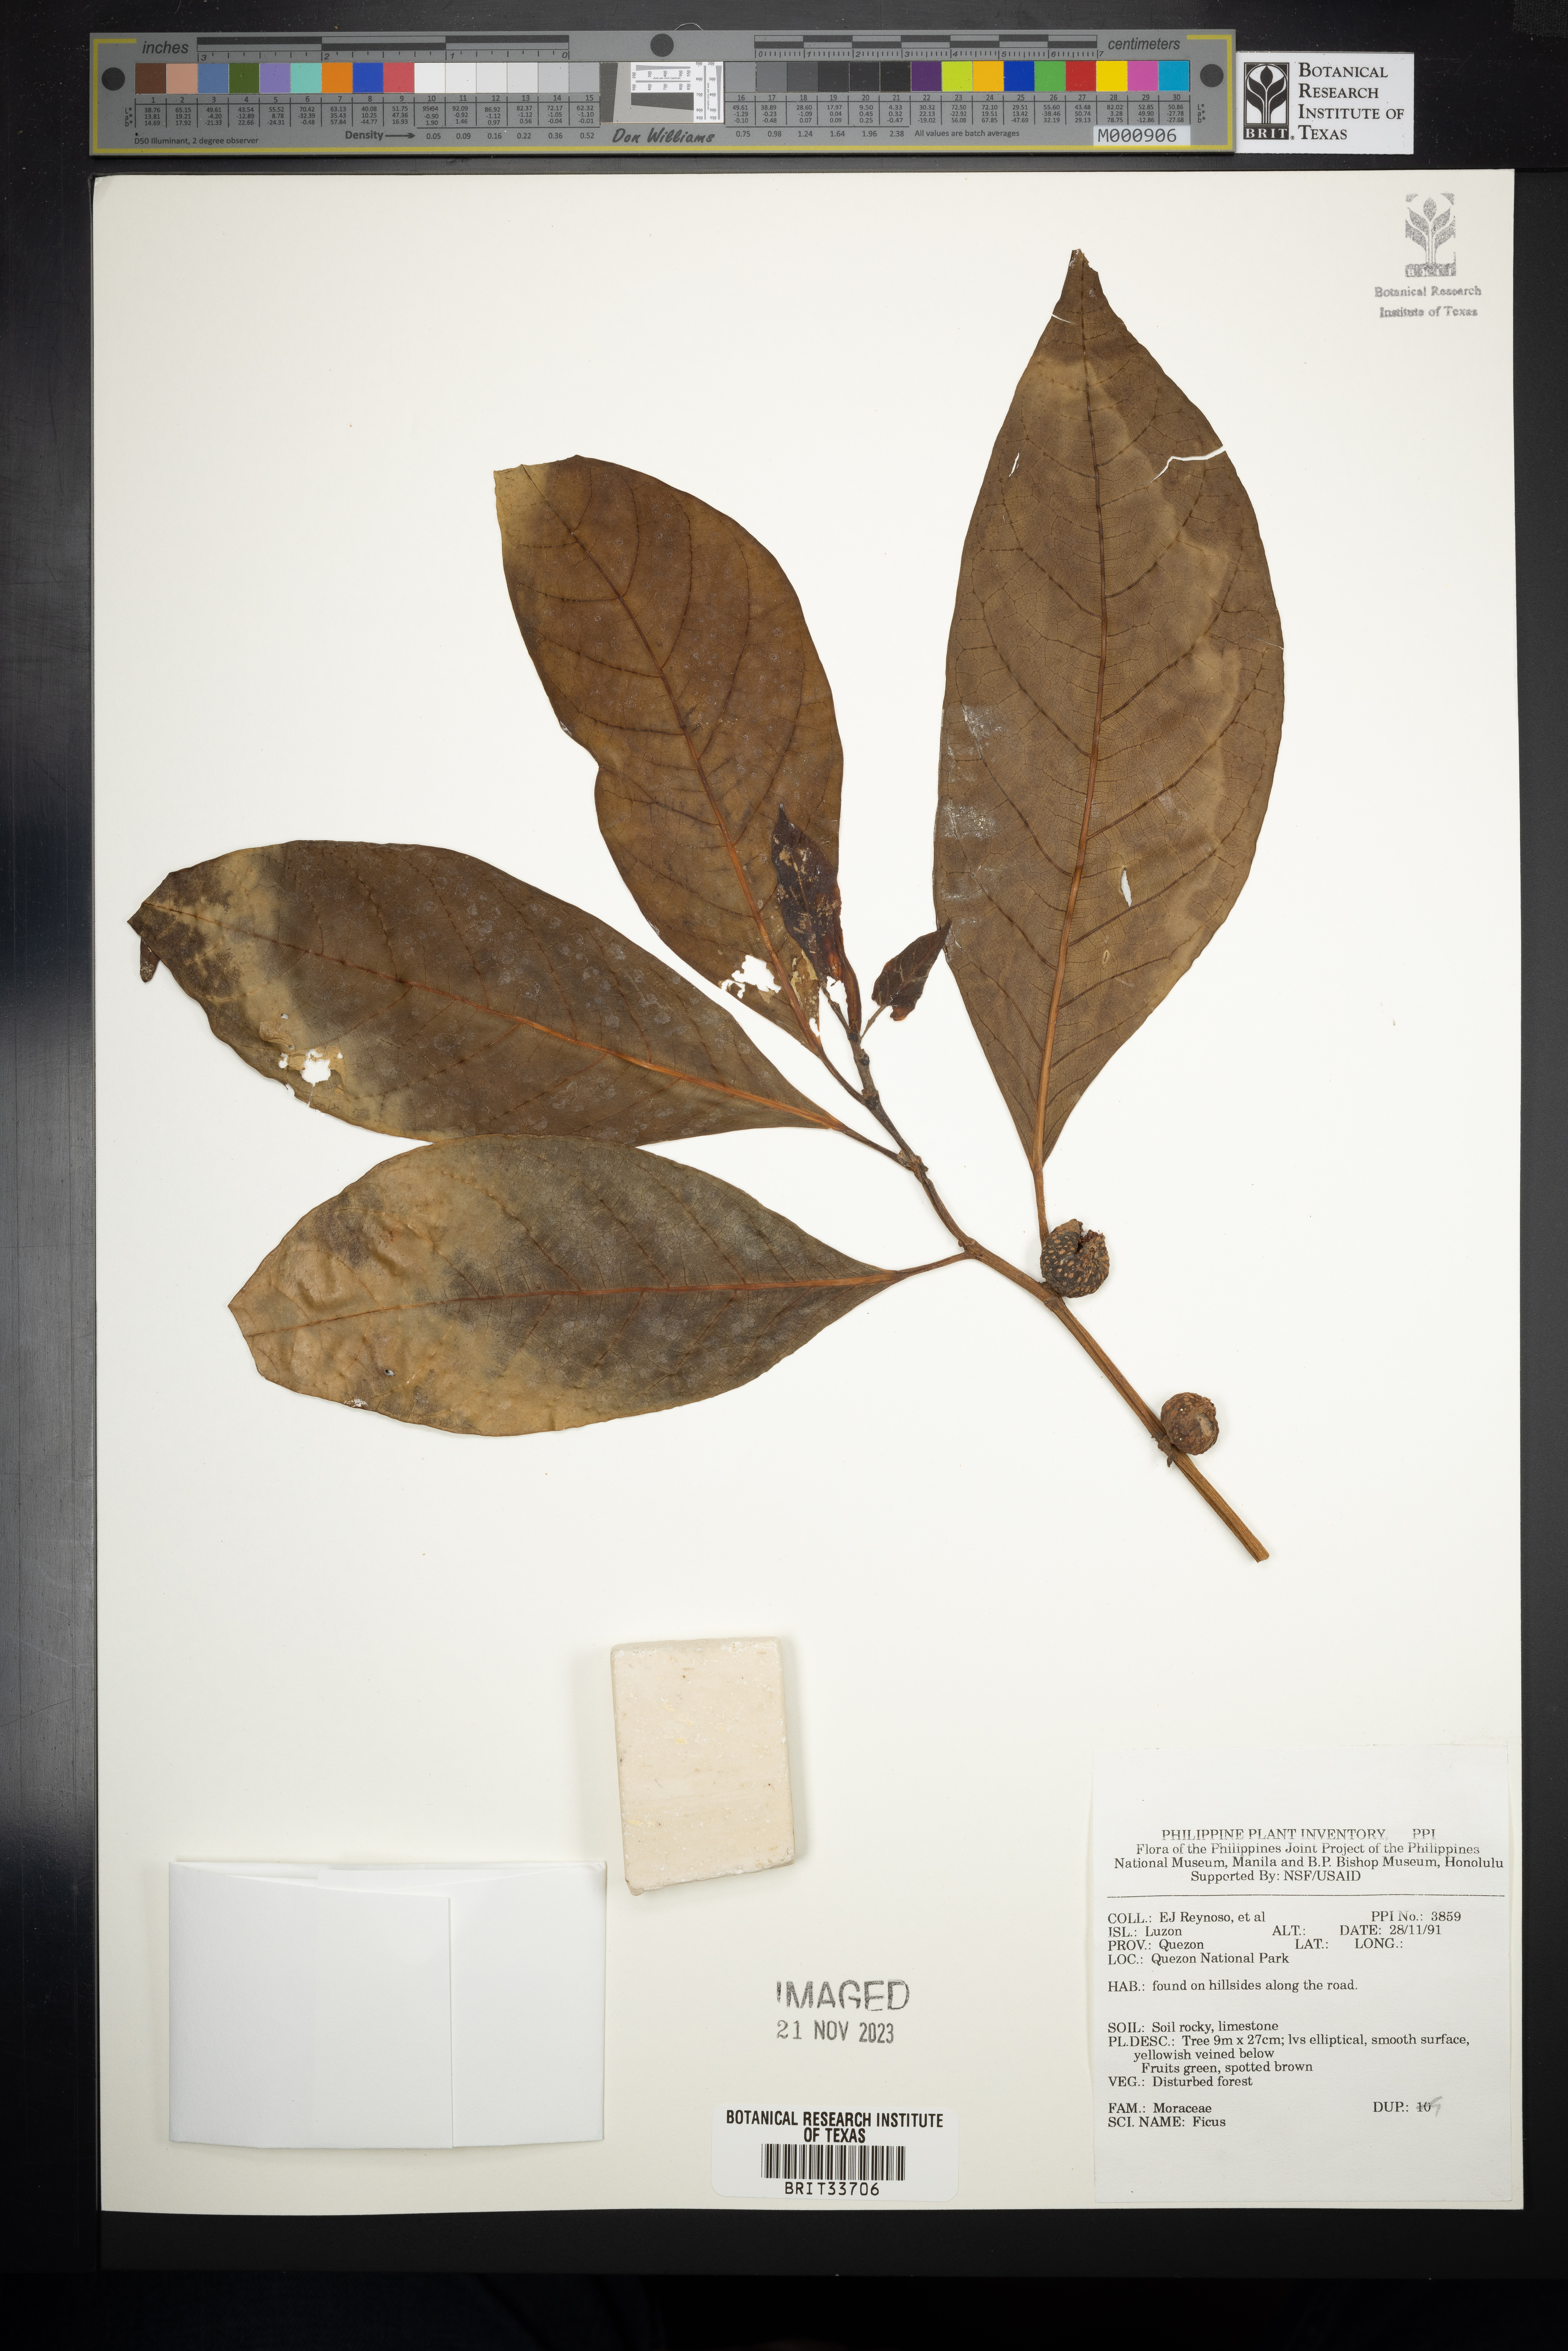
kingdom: Plantae
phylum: Tracheophyta
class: Magnoliopsida
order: Rosales
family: Moraceae
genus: Ficus
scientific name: Ficus
